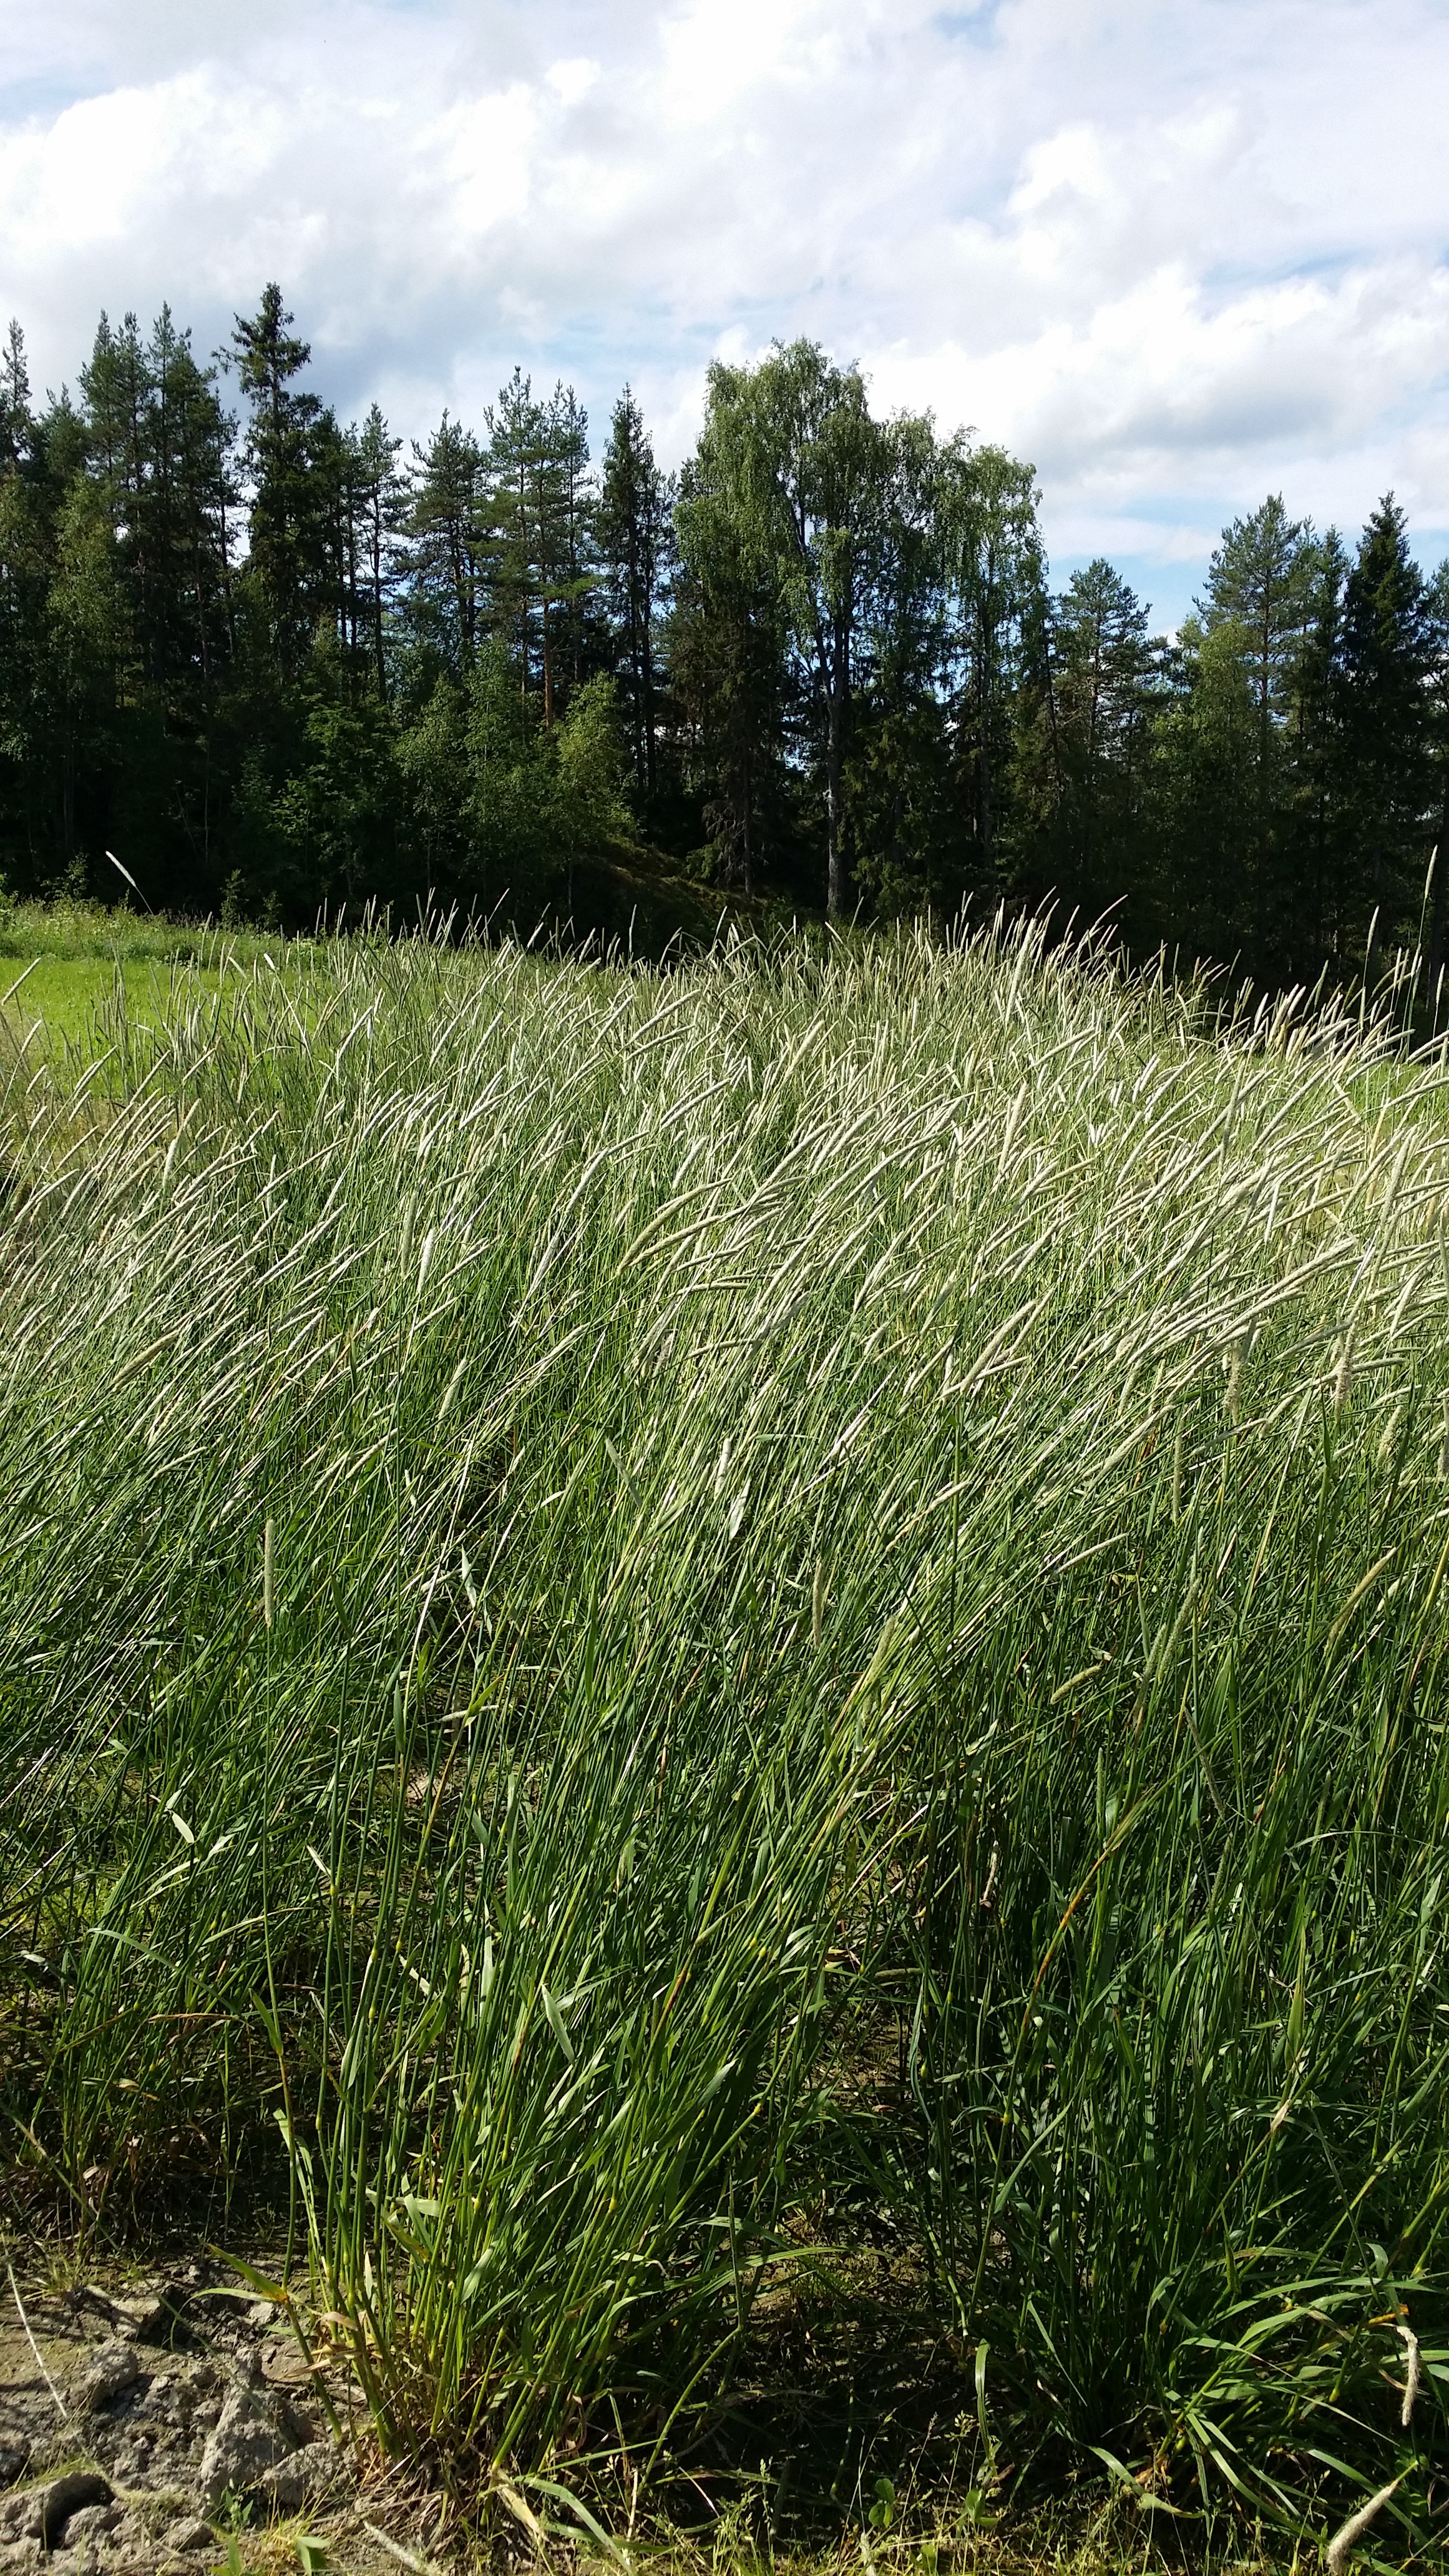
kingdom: Plantae
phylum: Tracheophyta
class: Liliopsida
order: Poales
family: Poaceae
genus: Alopecurus
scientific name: Alopecurus pratensis
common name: Meadow foxtail
